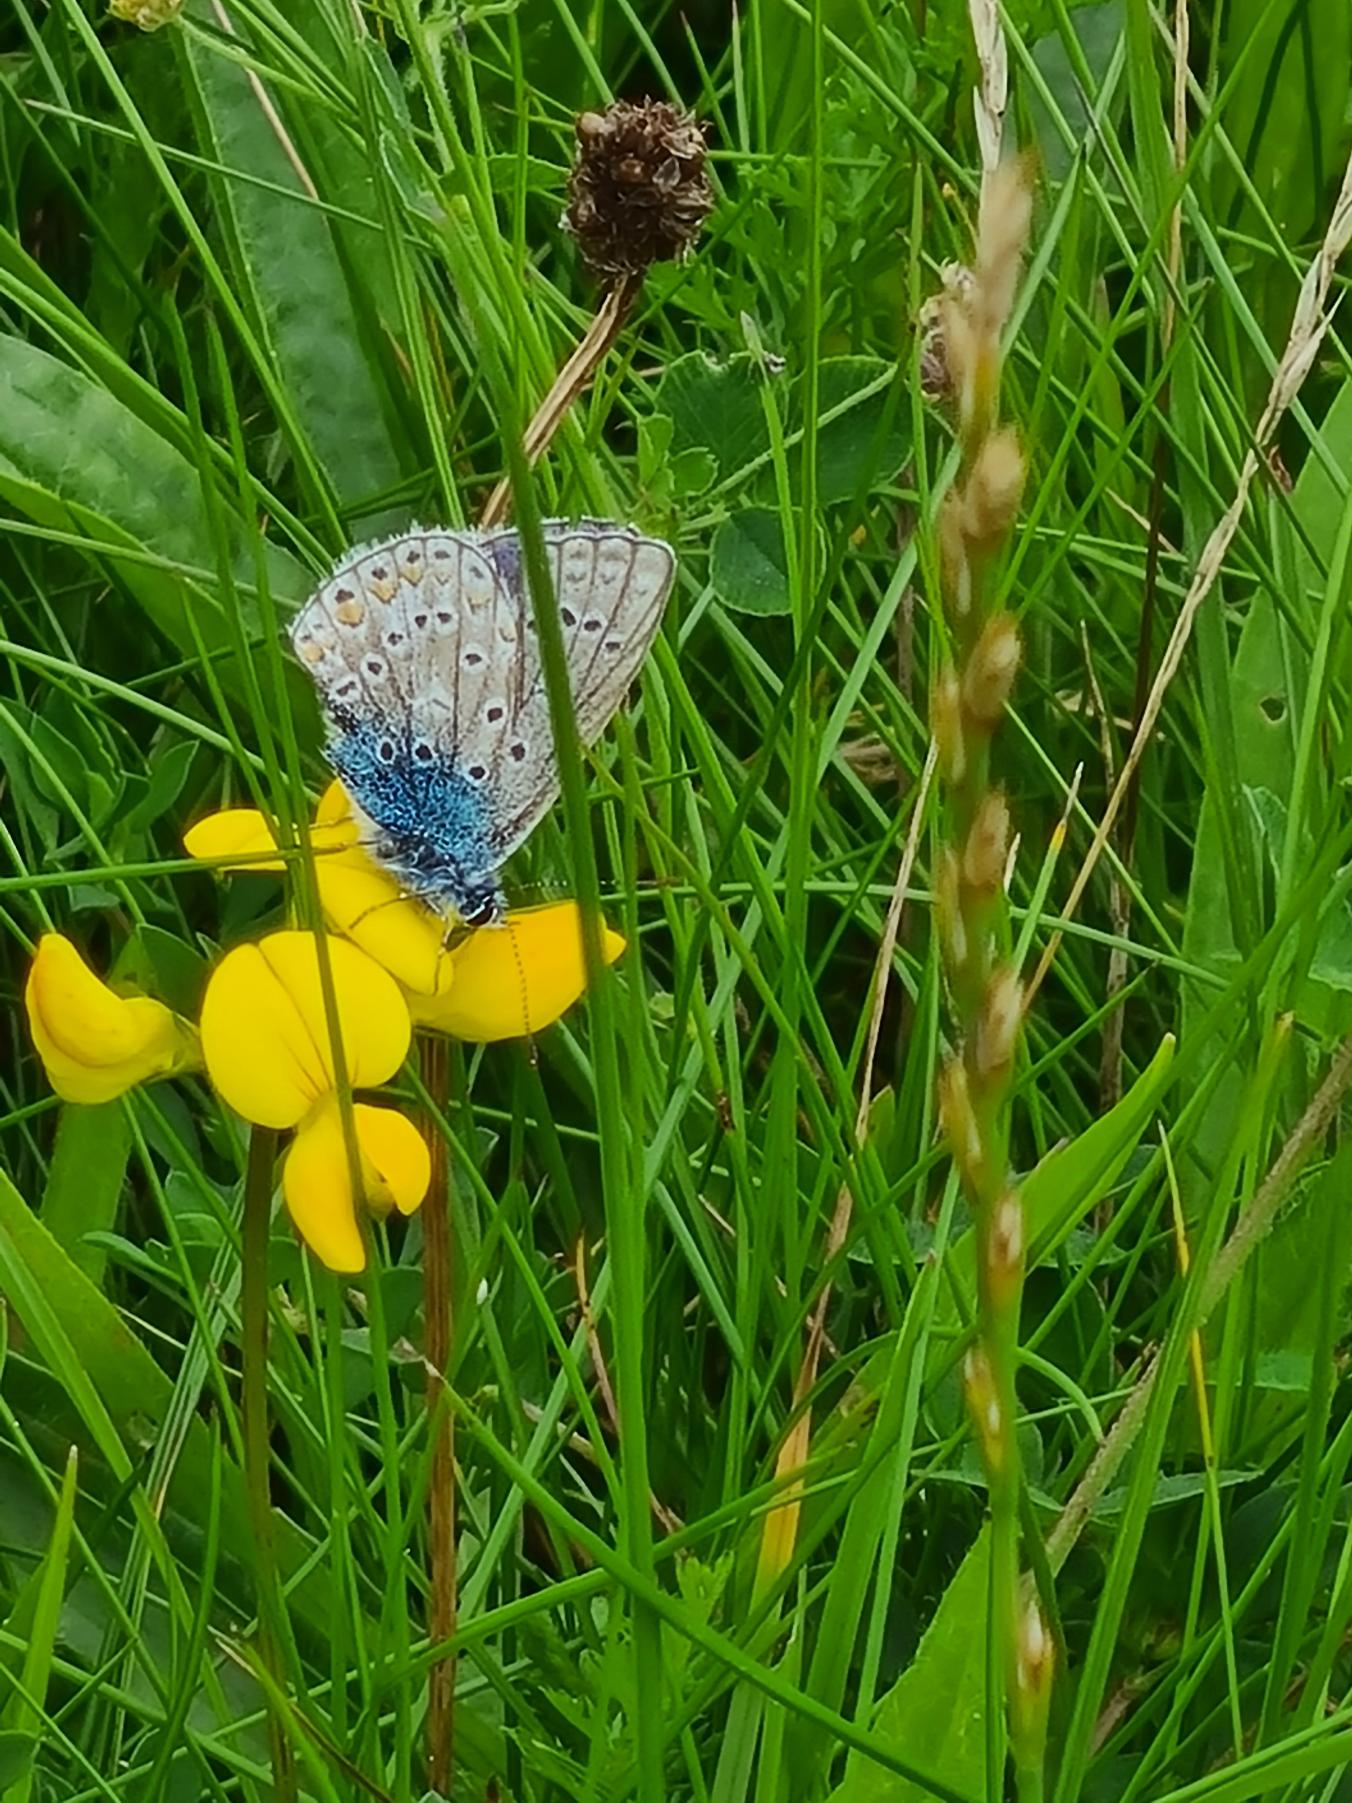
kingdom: Animalia
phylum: Arthropoda
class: Insecta
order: Lepidoptera
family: Lycaenidae
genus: Polyommatus
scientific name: Polyommatus icarus
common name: Almindelig blåfugl
